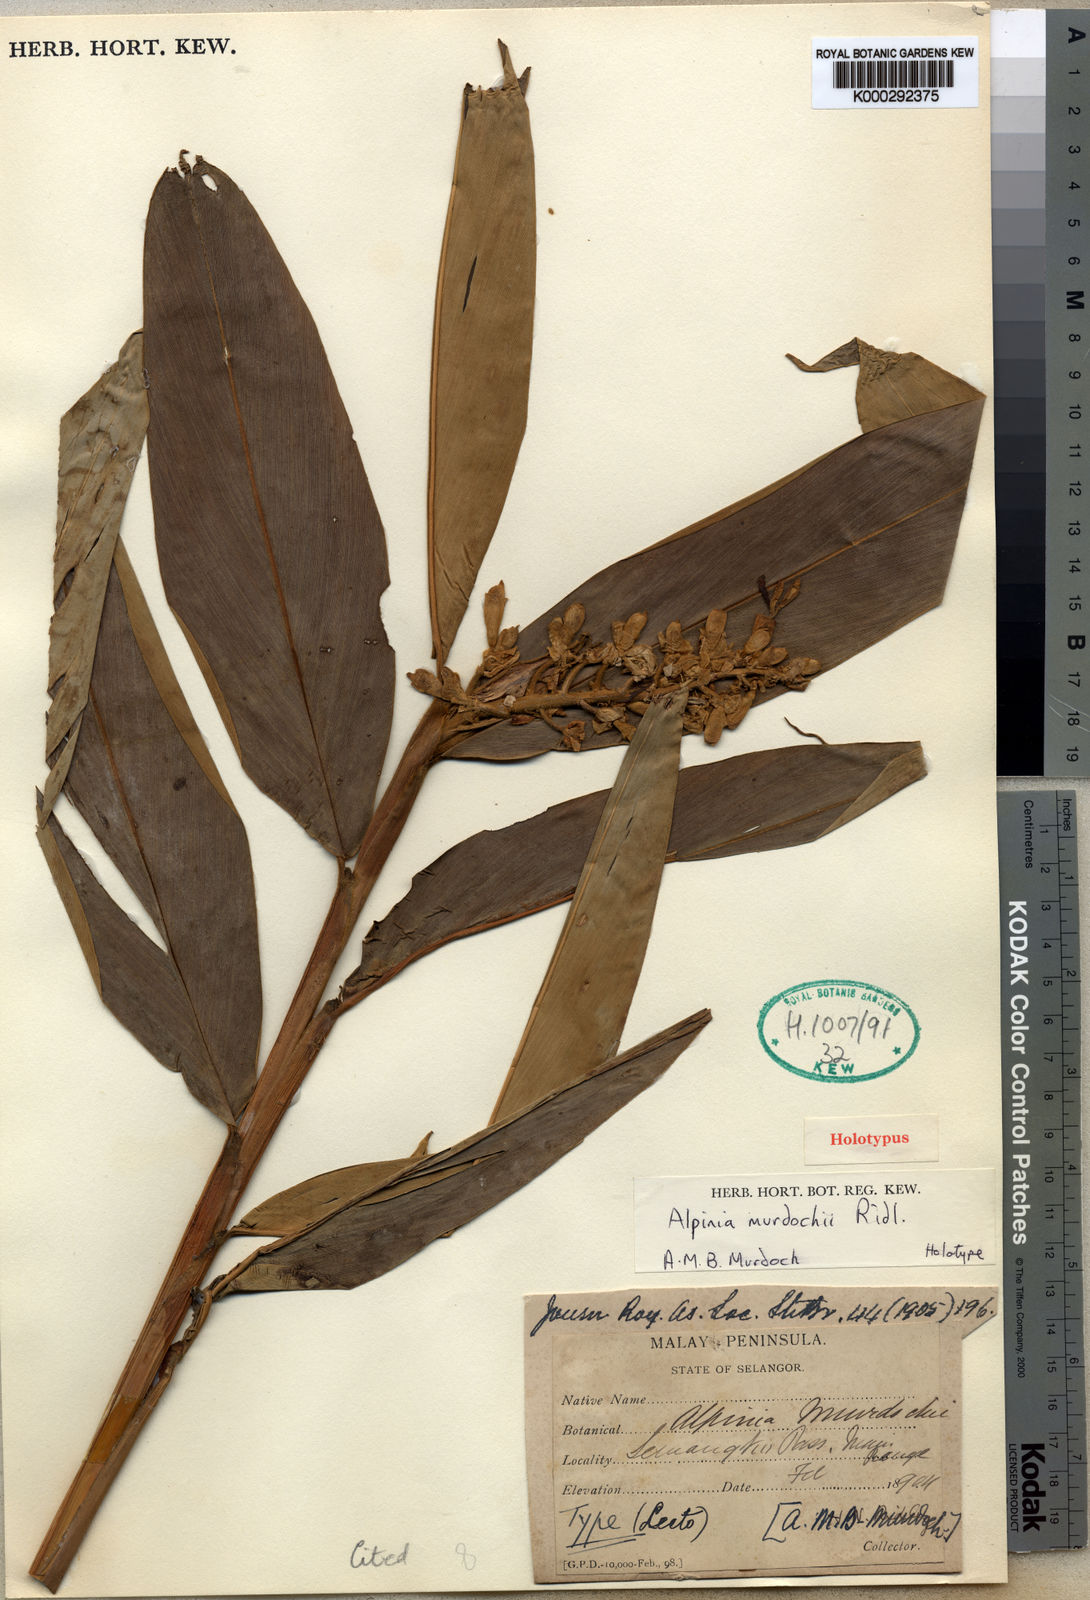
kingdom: Plantae
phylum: Tracheophyta
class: Liliopsida
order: Zingiberales
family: Zingiberaceae
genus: Alpinia
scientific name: Alpinia murdochii
